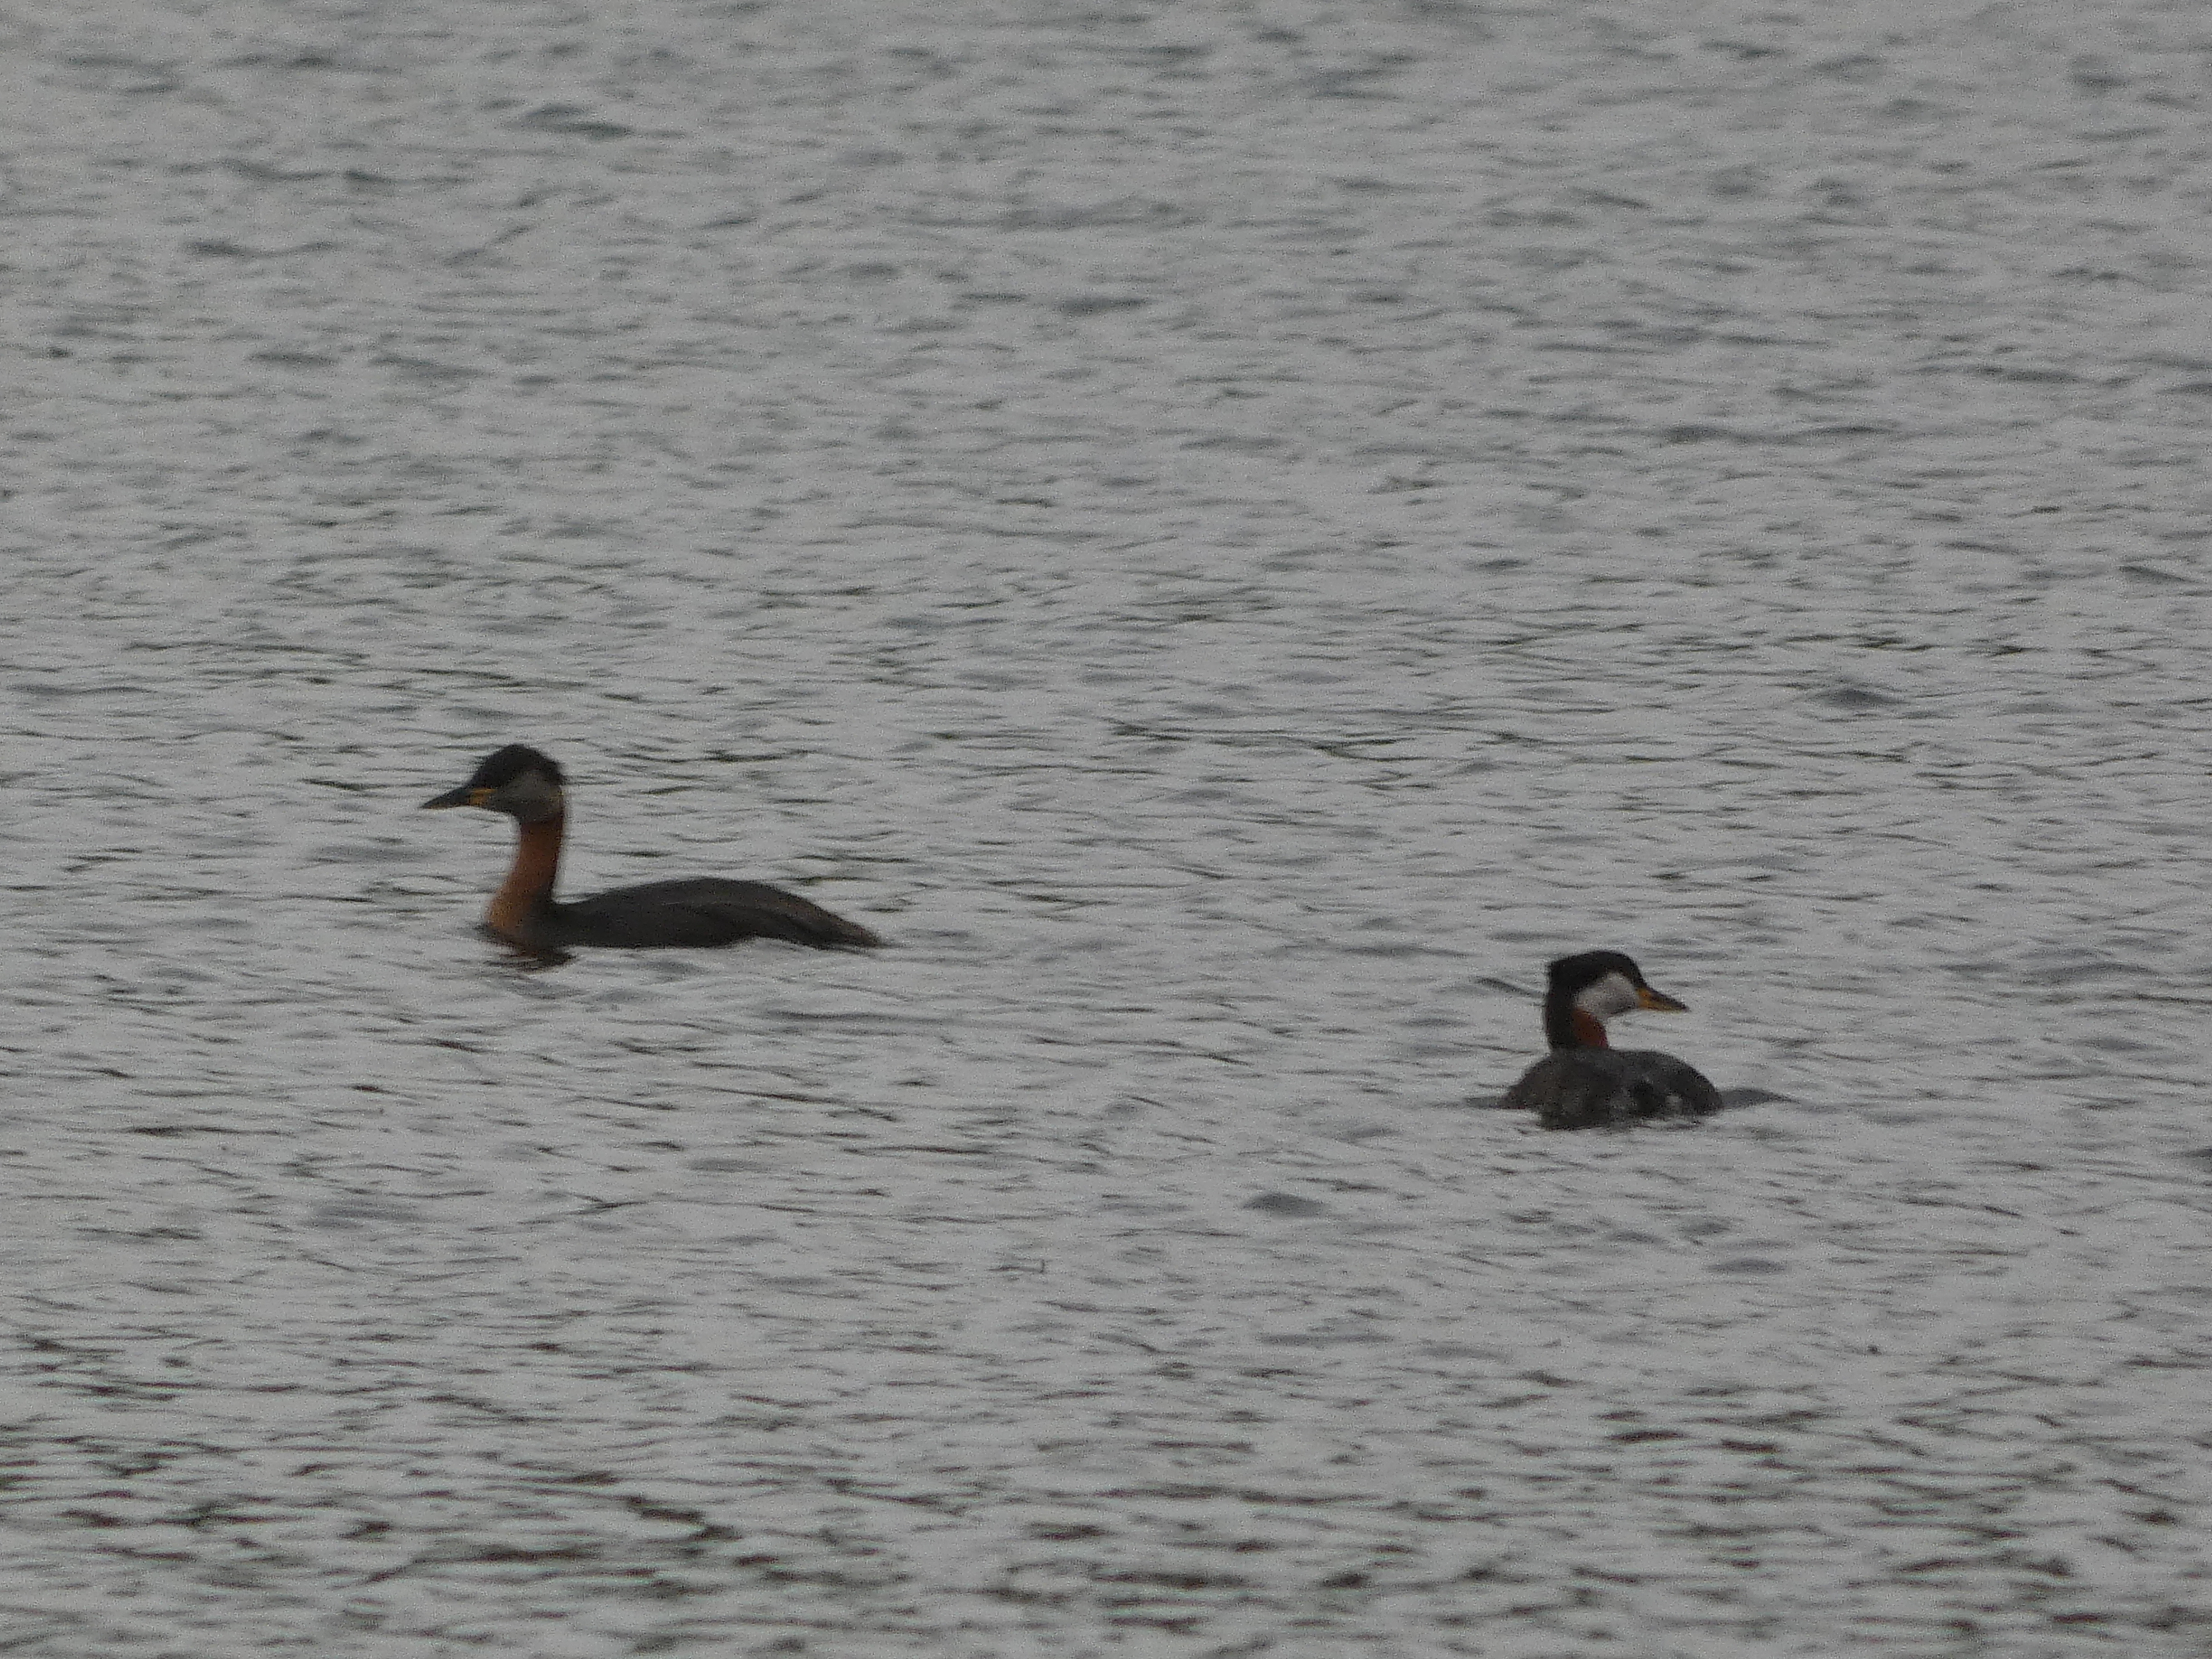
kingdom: Animalia
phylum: Chordata
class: Aves
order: Podicipediformes
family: Podicipedidae
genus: Podiceps
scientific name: Podiceps grisegena
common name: Gråstrubet lappedykker
